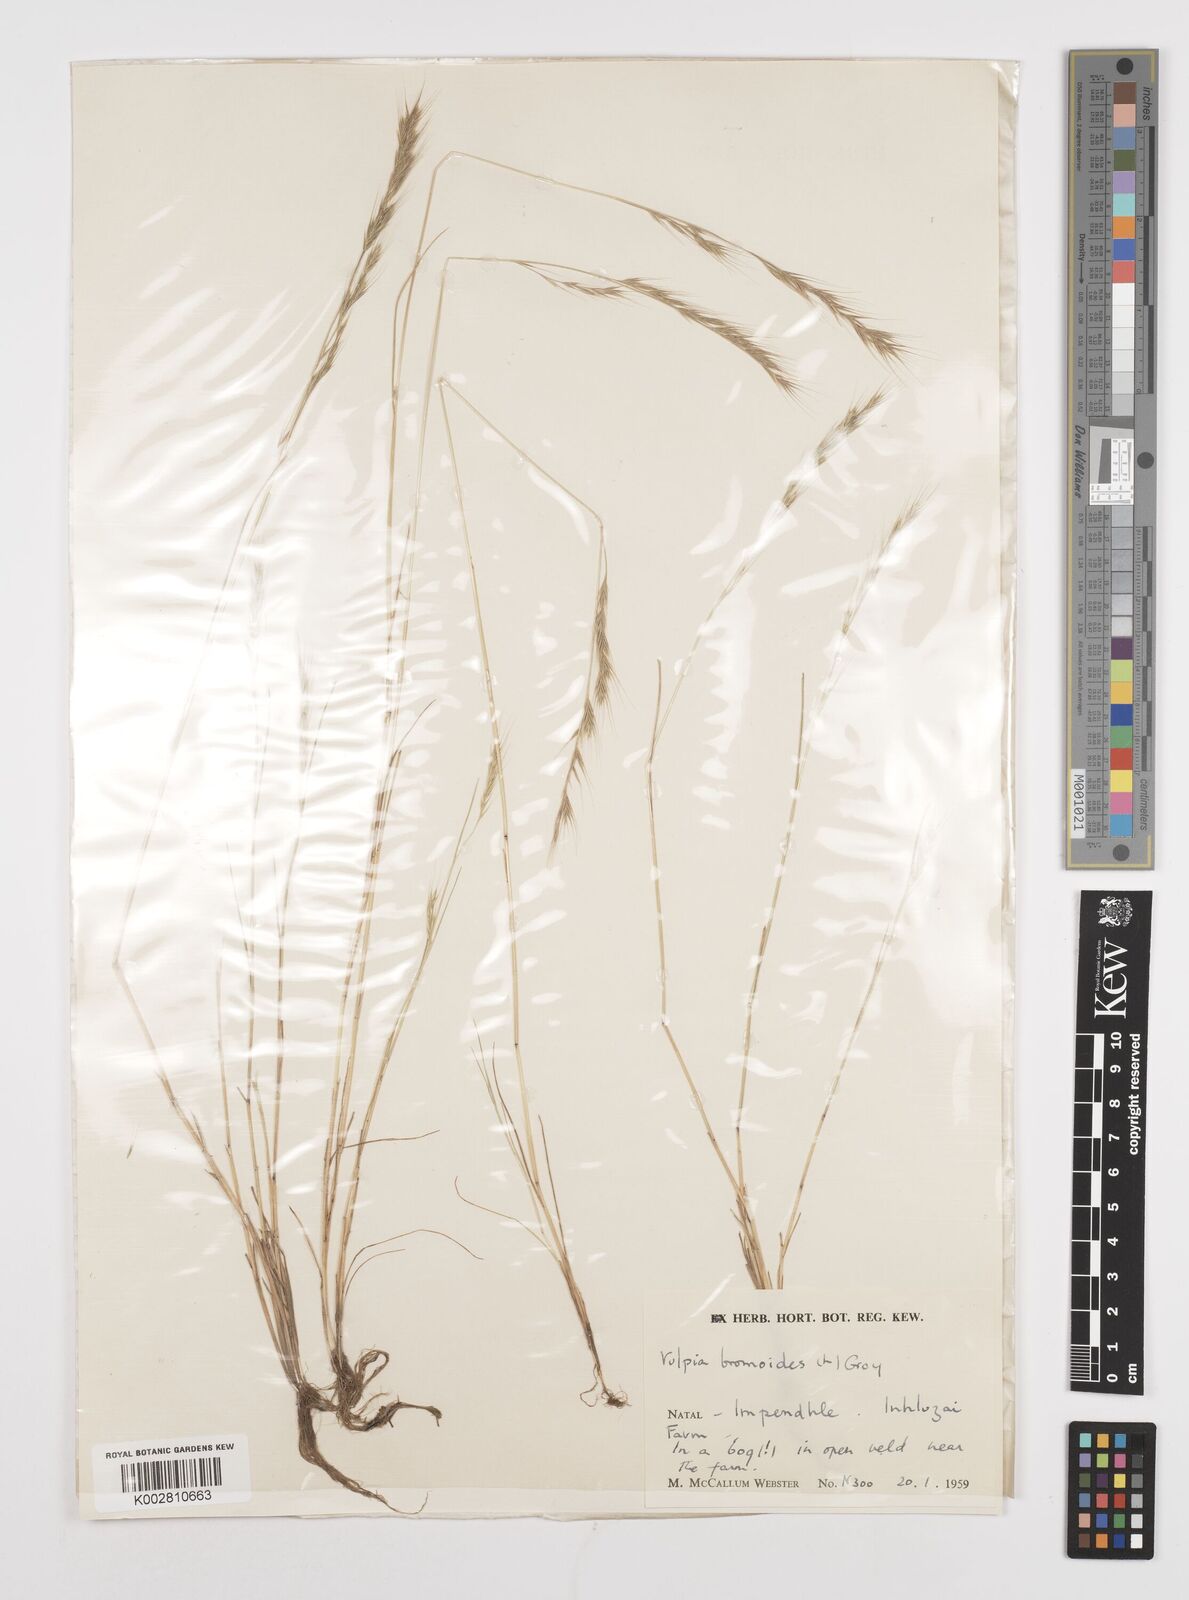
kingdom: Plantae
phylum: Tracheophyta
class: Liliopsida
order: Poales
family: Poaceae
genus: Festuca
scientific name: Festuca bromoides
